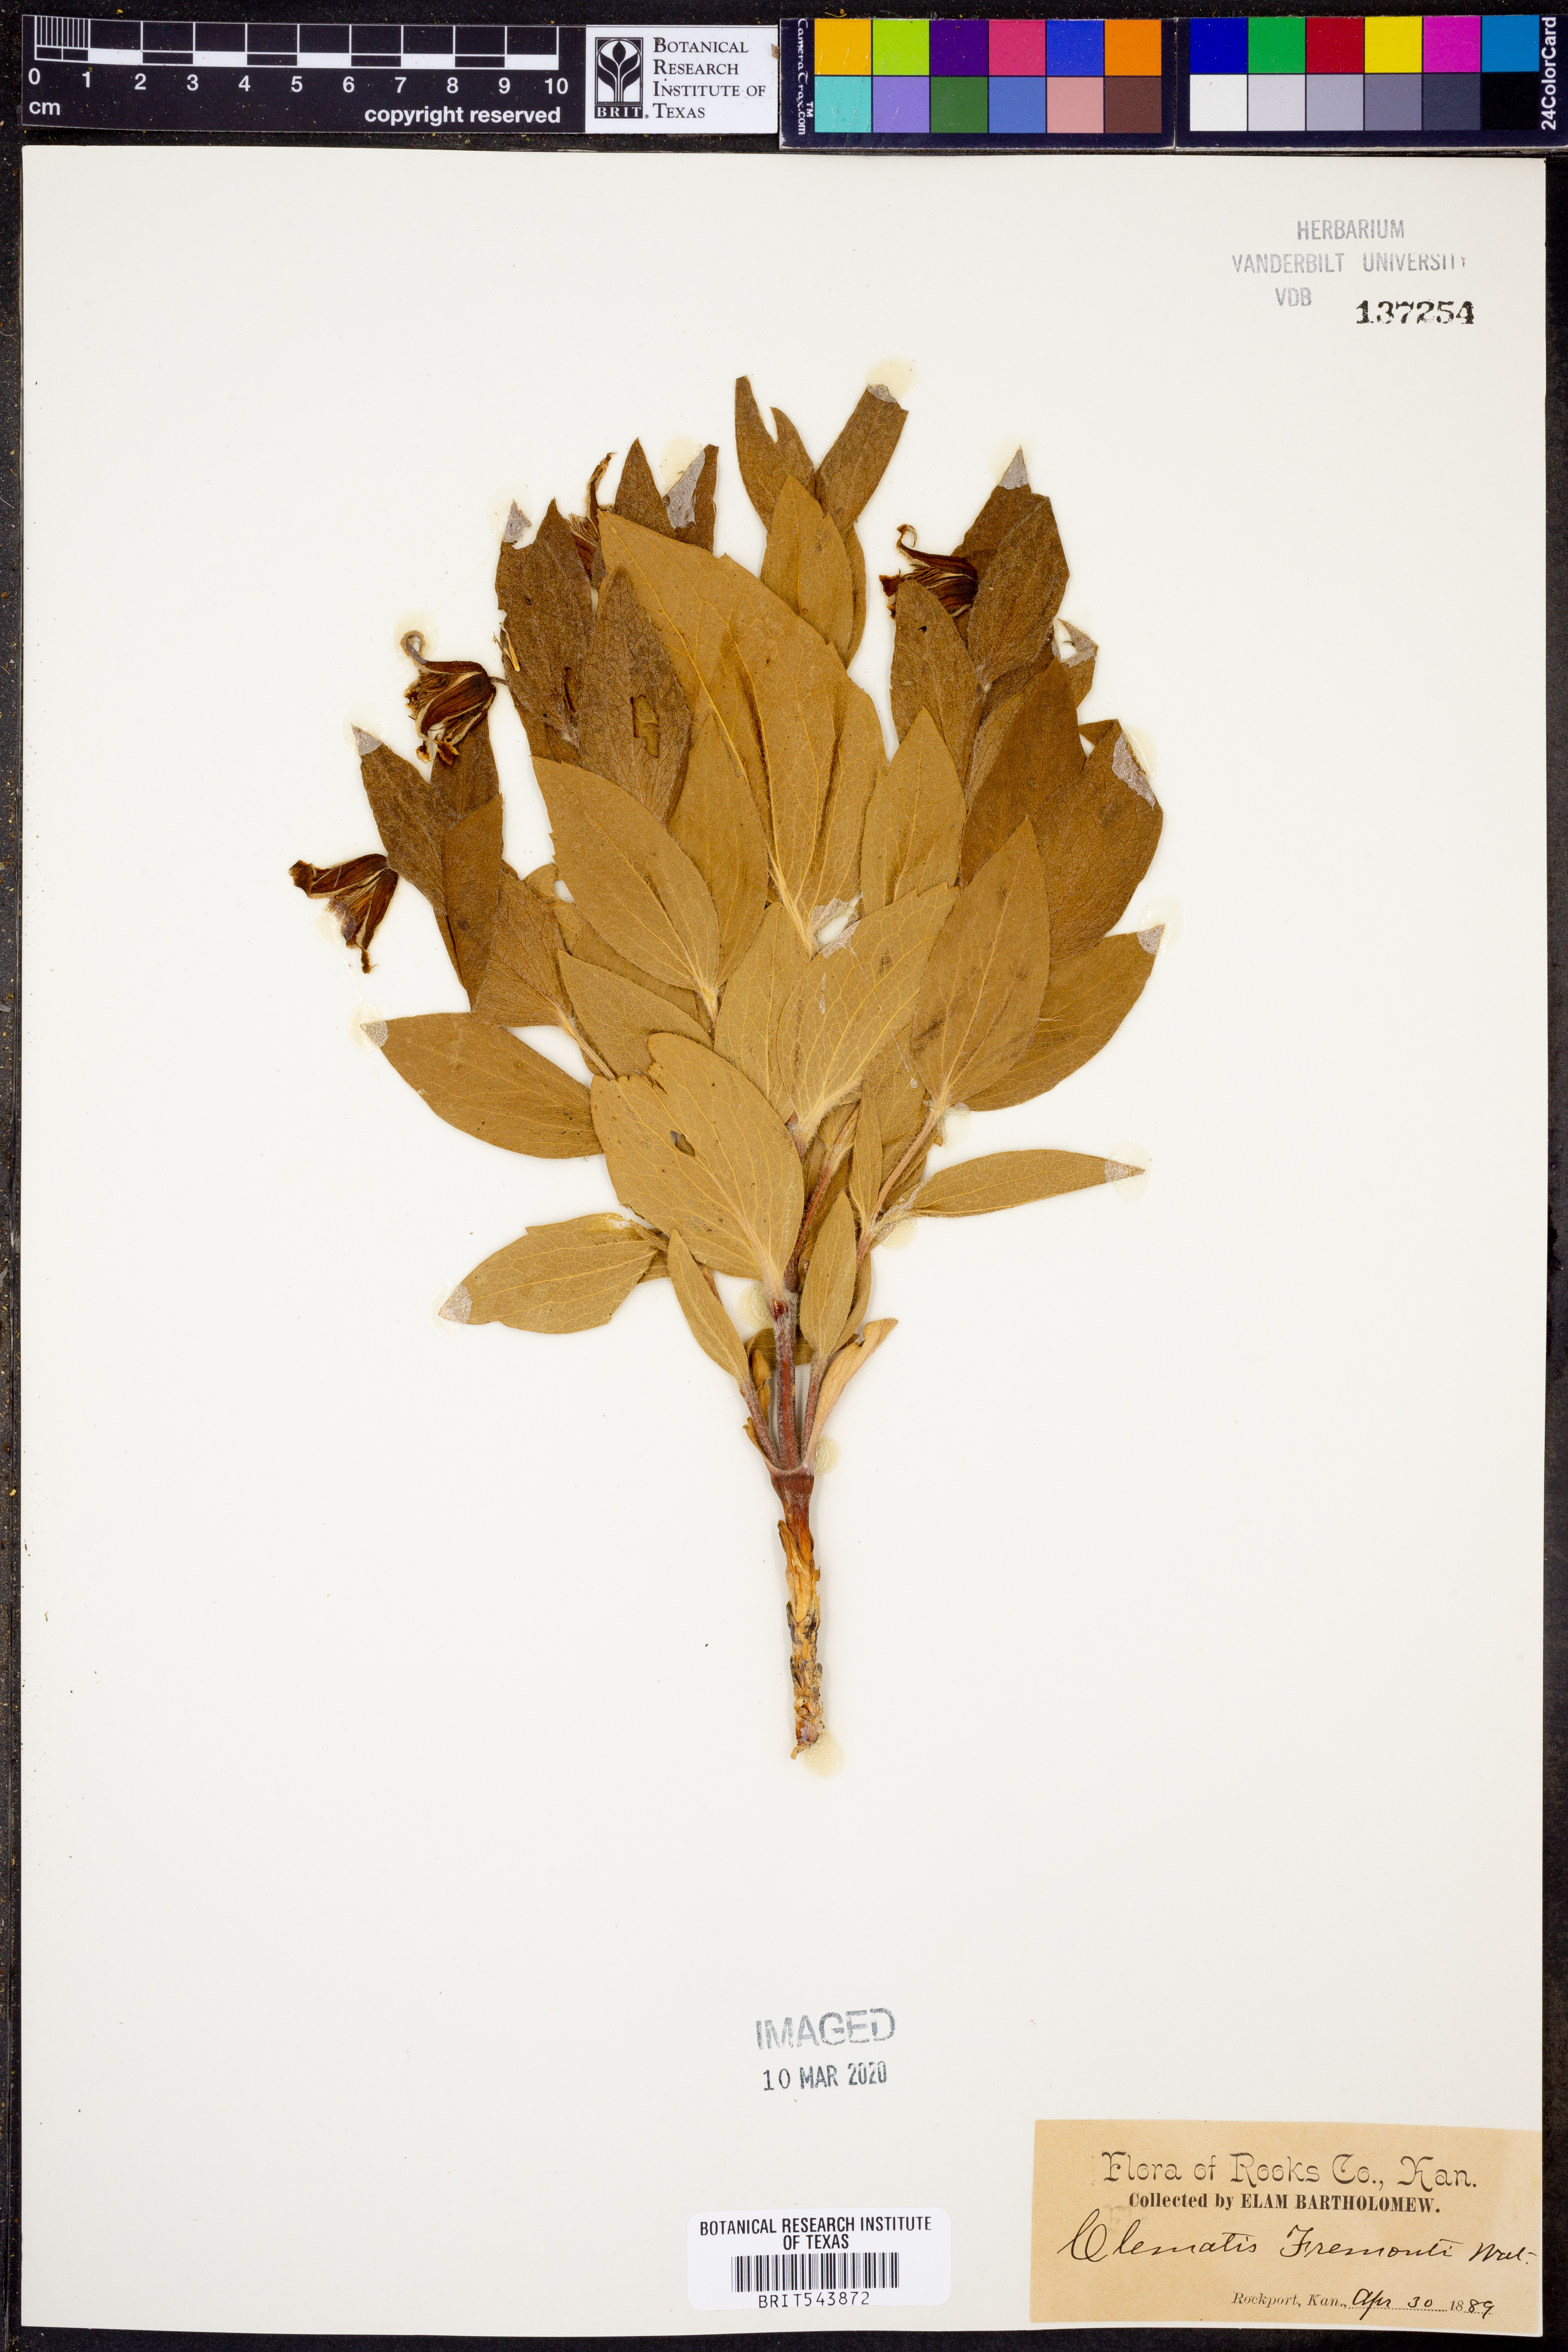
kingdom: Plantae
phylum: Tracheophyta
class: Magnoliopsida
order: Ranunculales
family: Ranunculaceae
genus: Clematis
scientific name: Clematis fremontii
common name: Fremont's clematis
